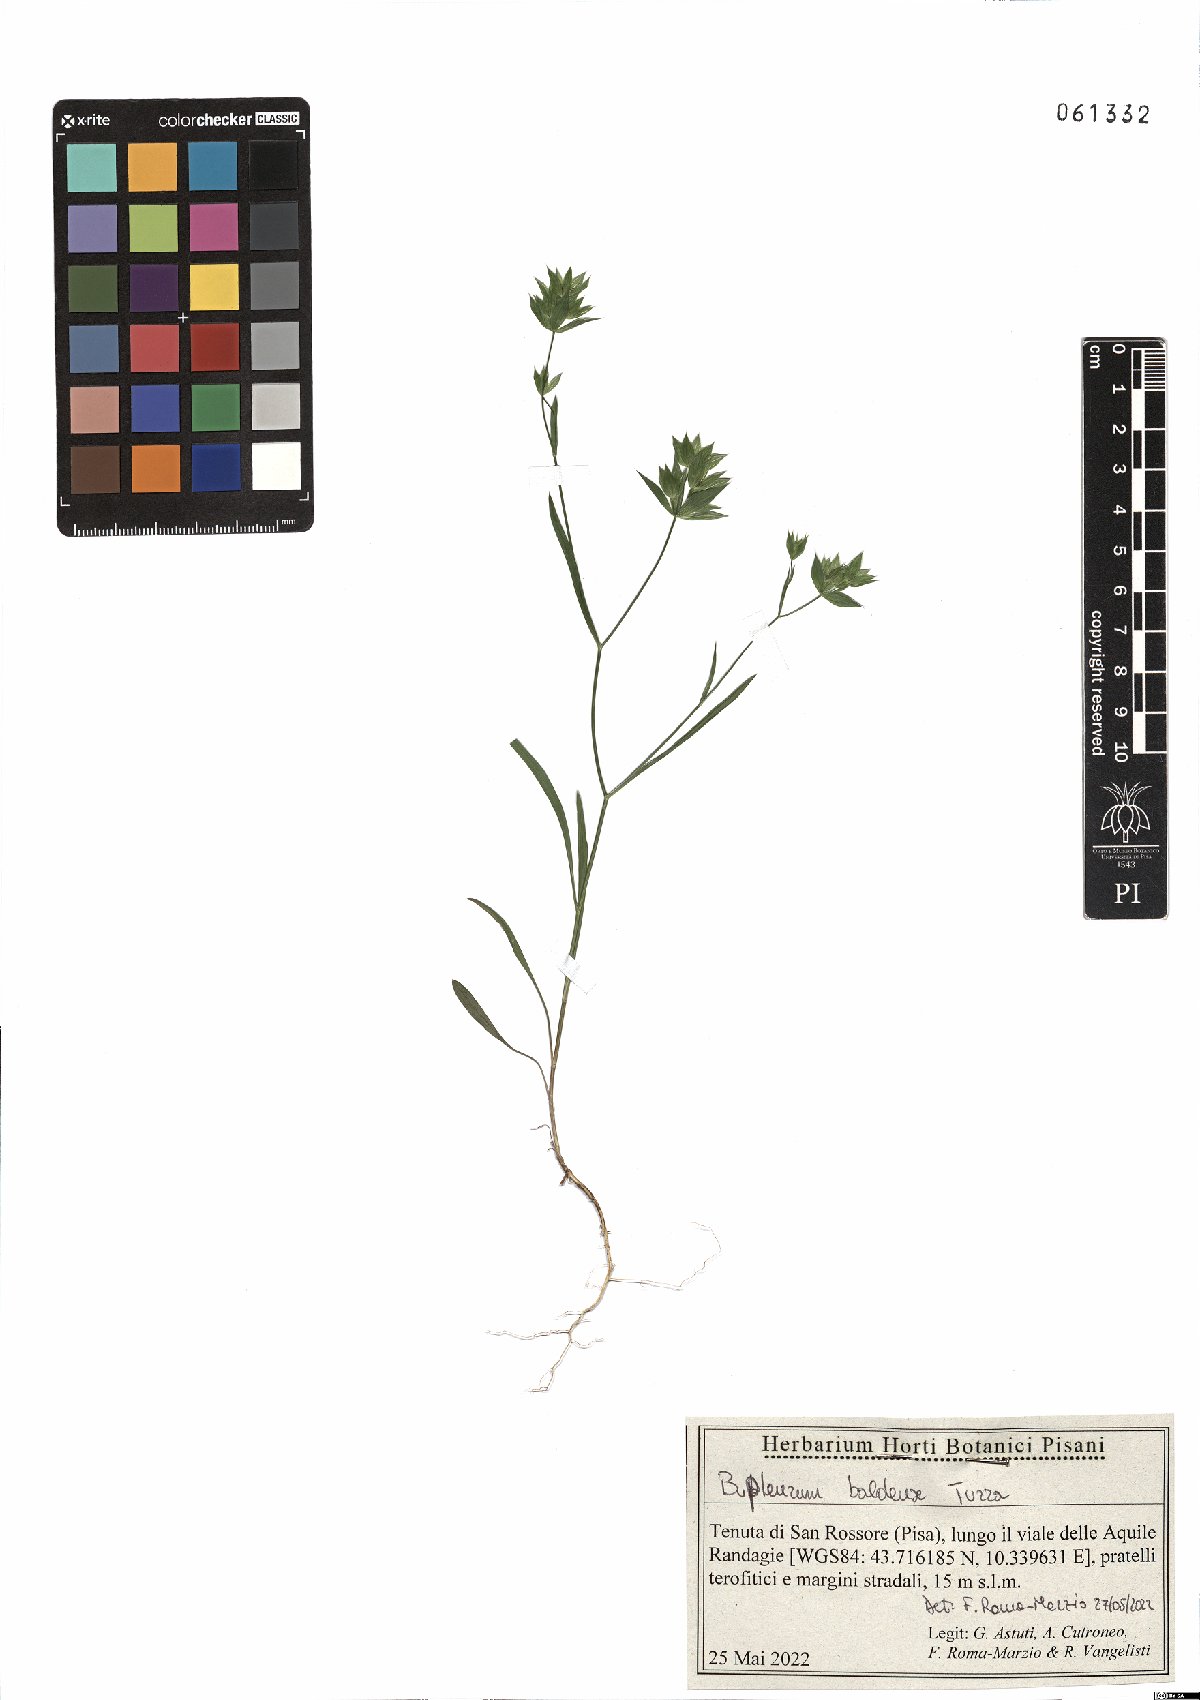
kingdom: Plantae
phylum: Tracheophyta
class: Magnoliopsida
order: Apiales
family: Apiaceae
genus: Bupleurum
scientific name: Bupleurum baldense
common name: Small hare's-ear
